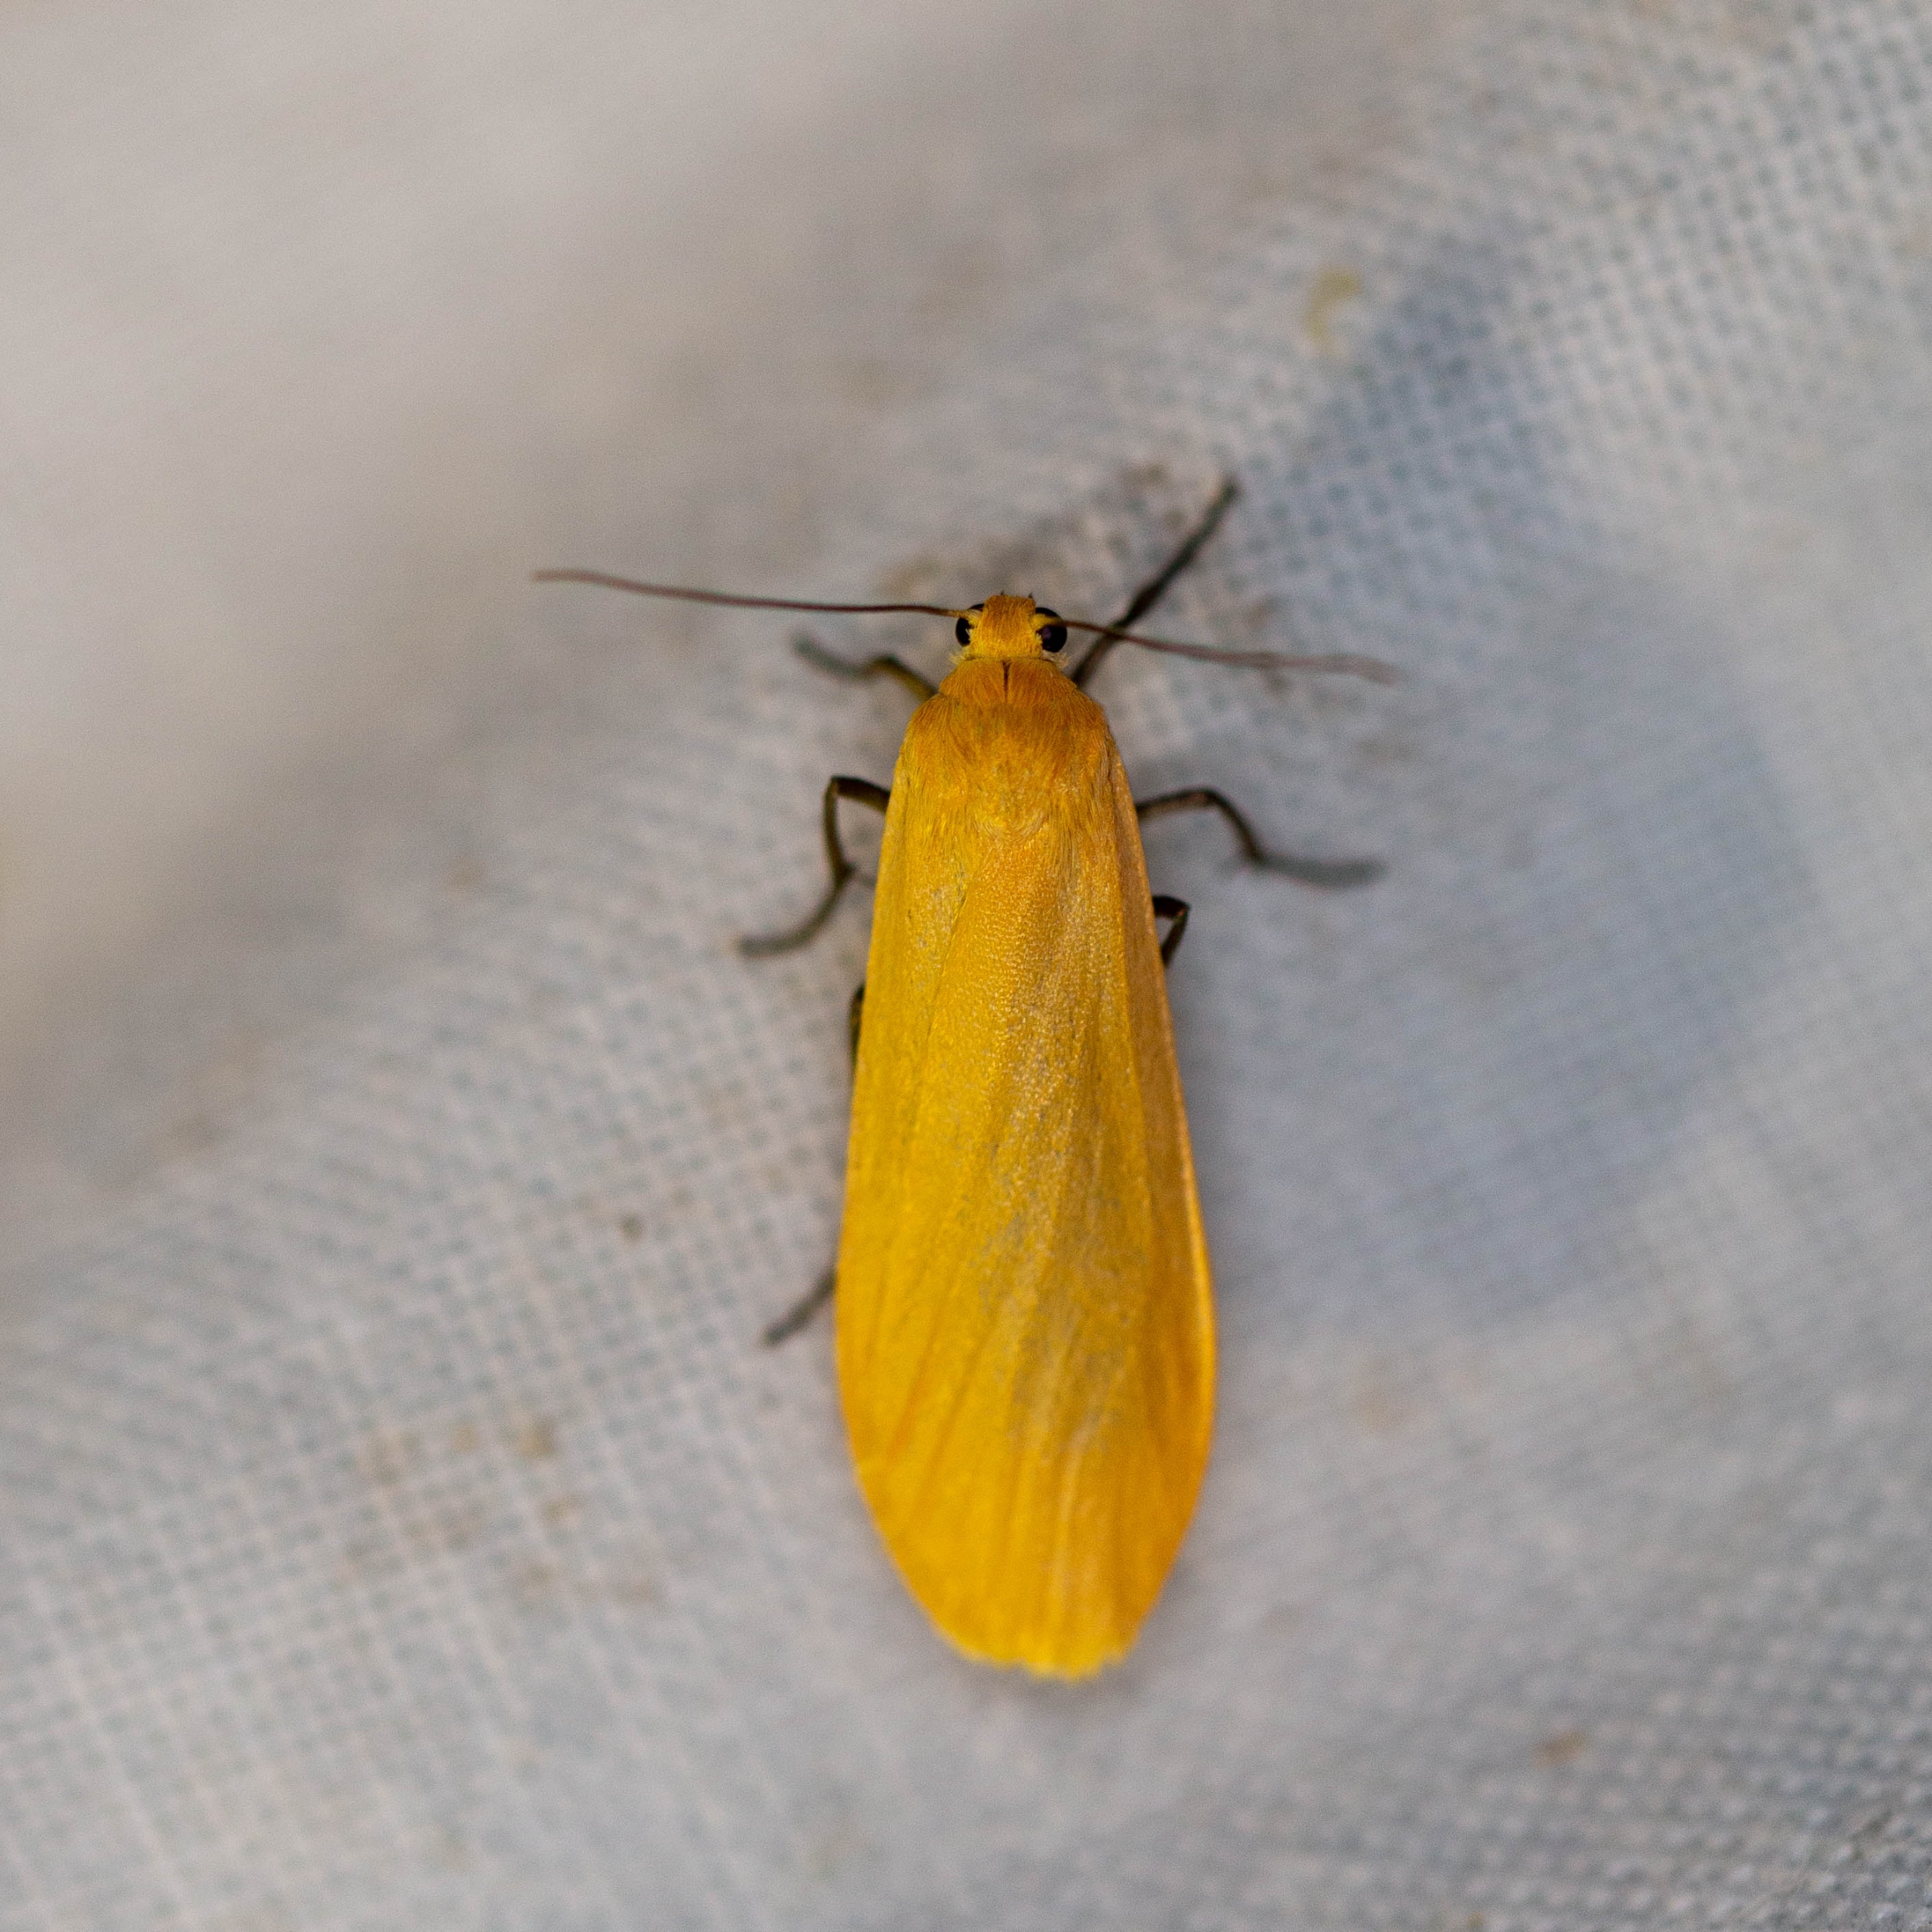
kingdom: Animalia
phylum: Arthropoda
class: Insecta
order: Lepidoptera
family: Erebidae
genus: Wittia
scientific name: Wittia sororcula
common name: Guldgul lavspinder
